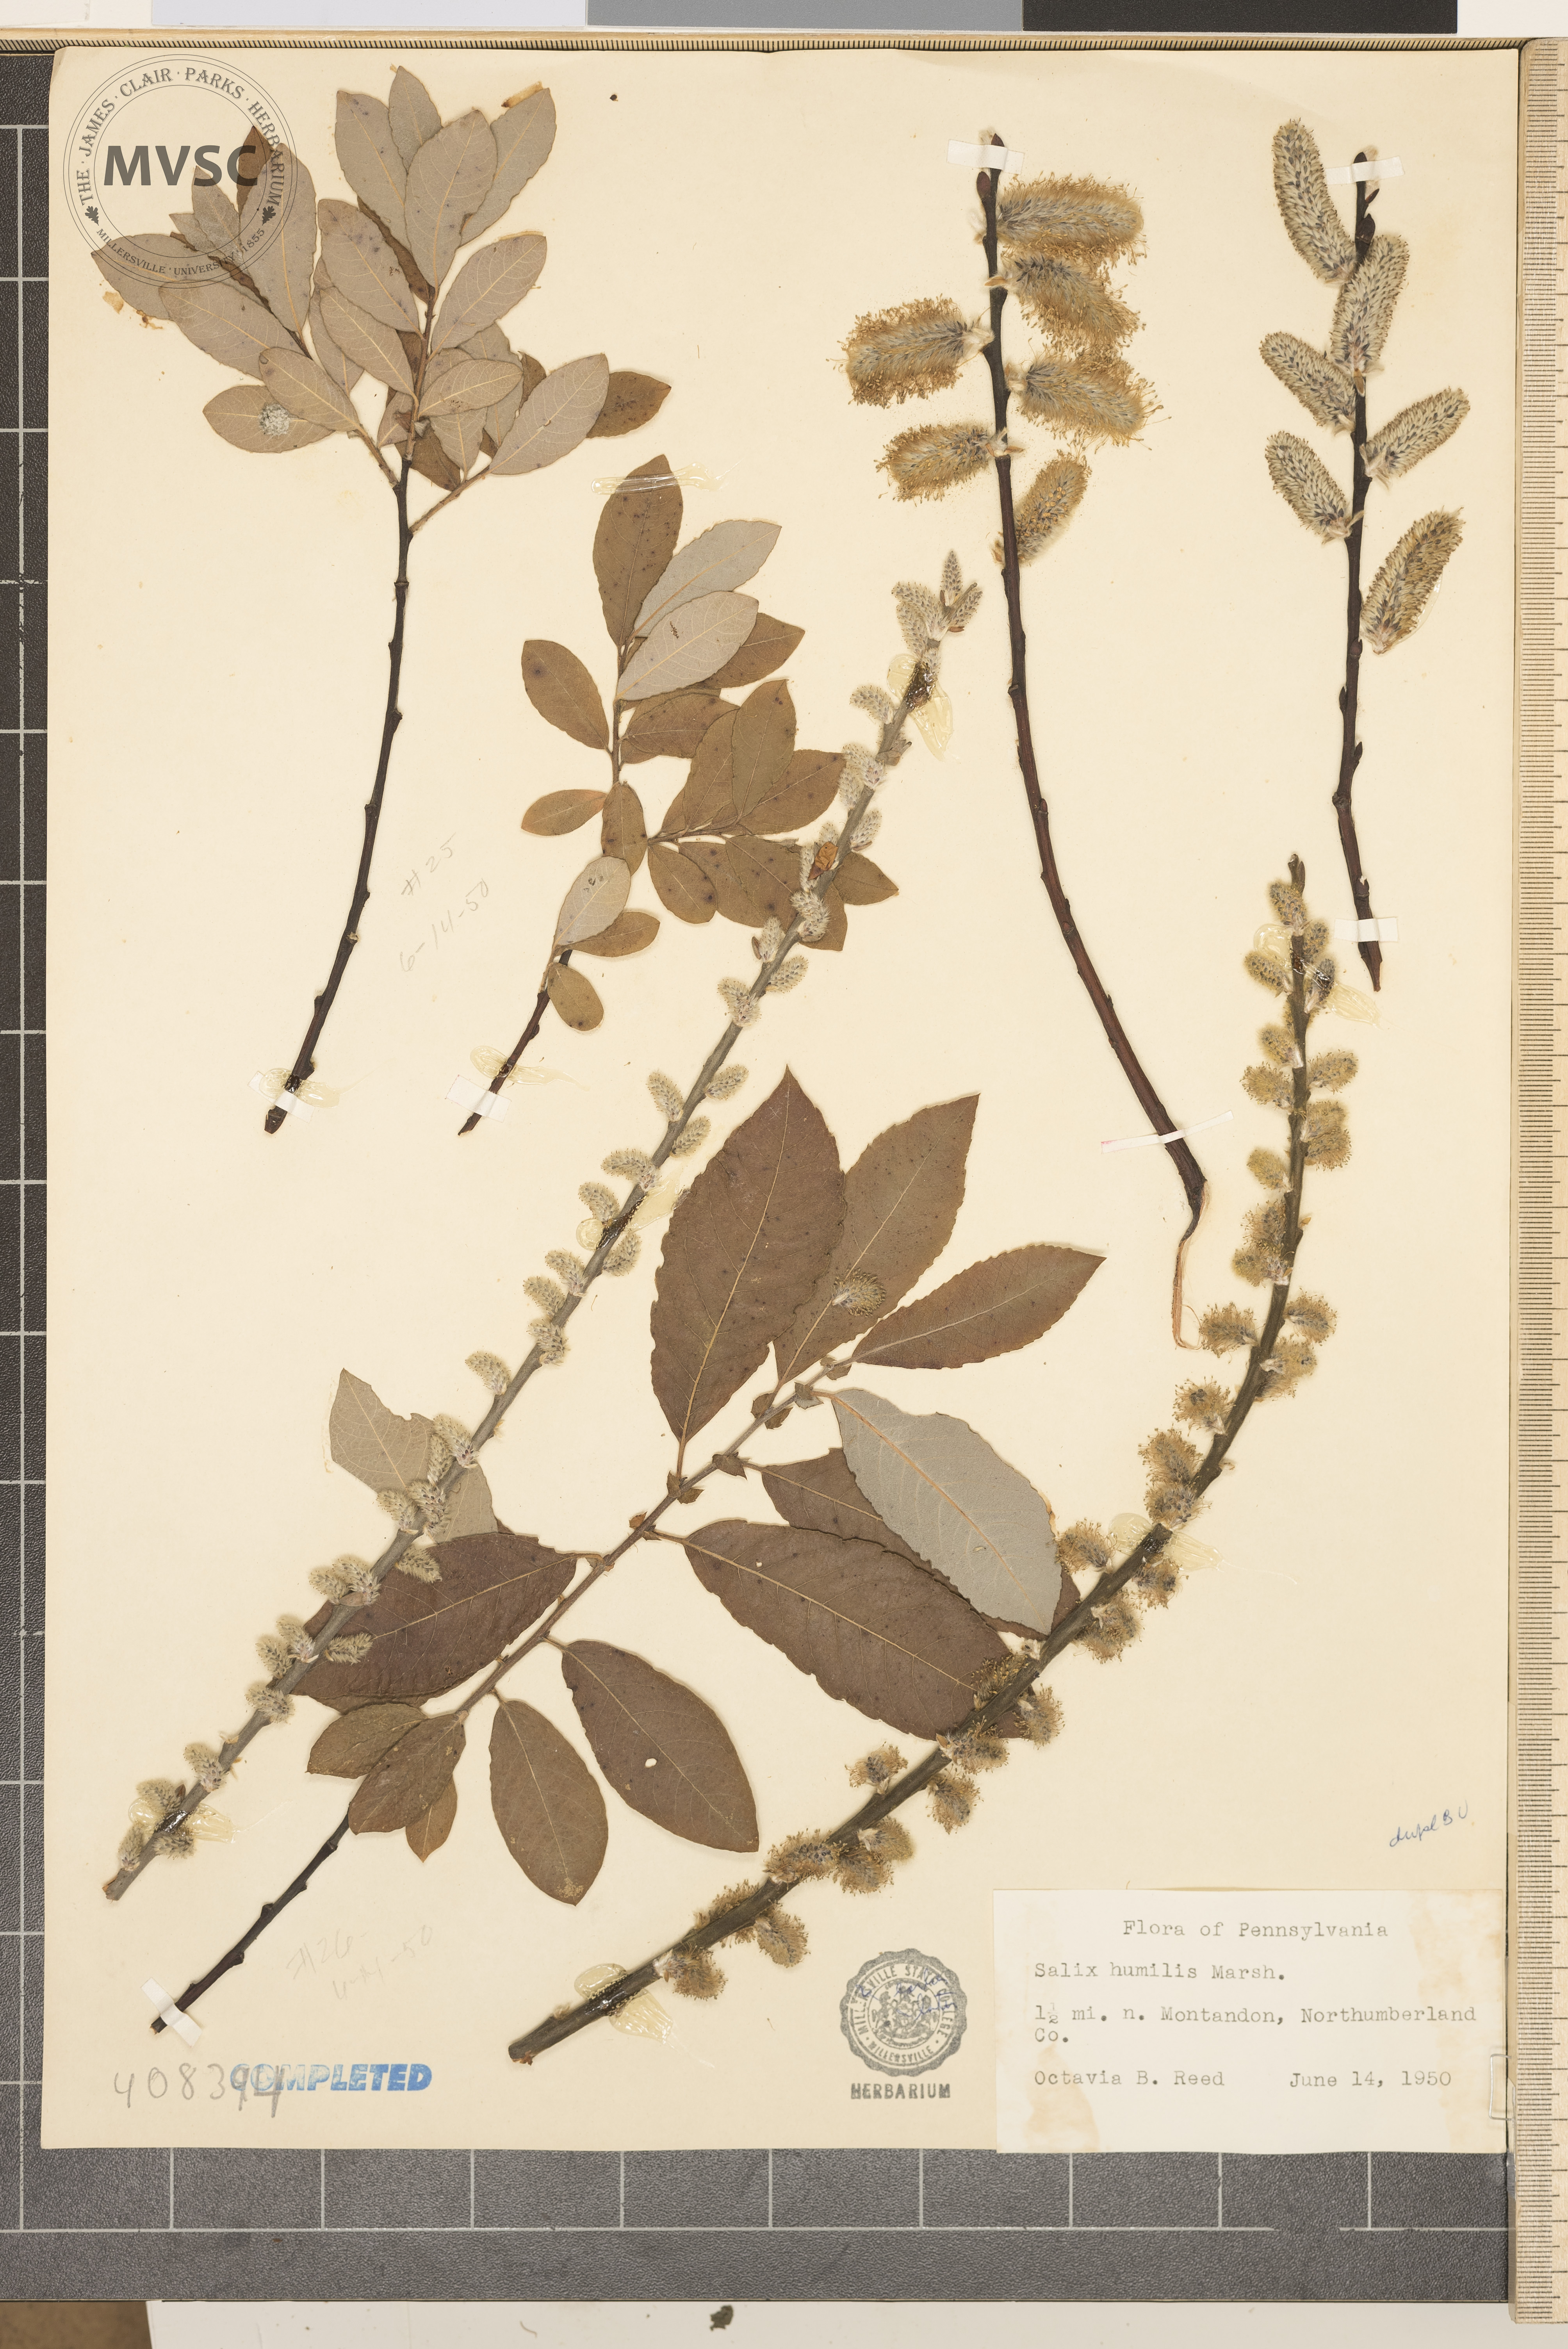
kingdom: Plantae
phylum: Tracheophyta
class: Magnoliopsida
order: Malpighiales
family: Salicaceae
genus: Salix
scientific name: Salix humilis
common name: Prairie willow
